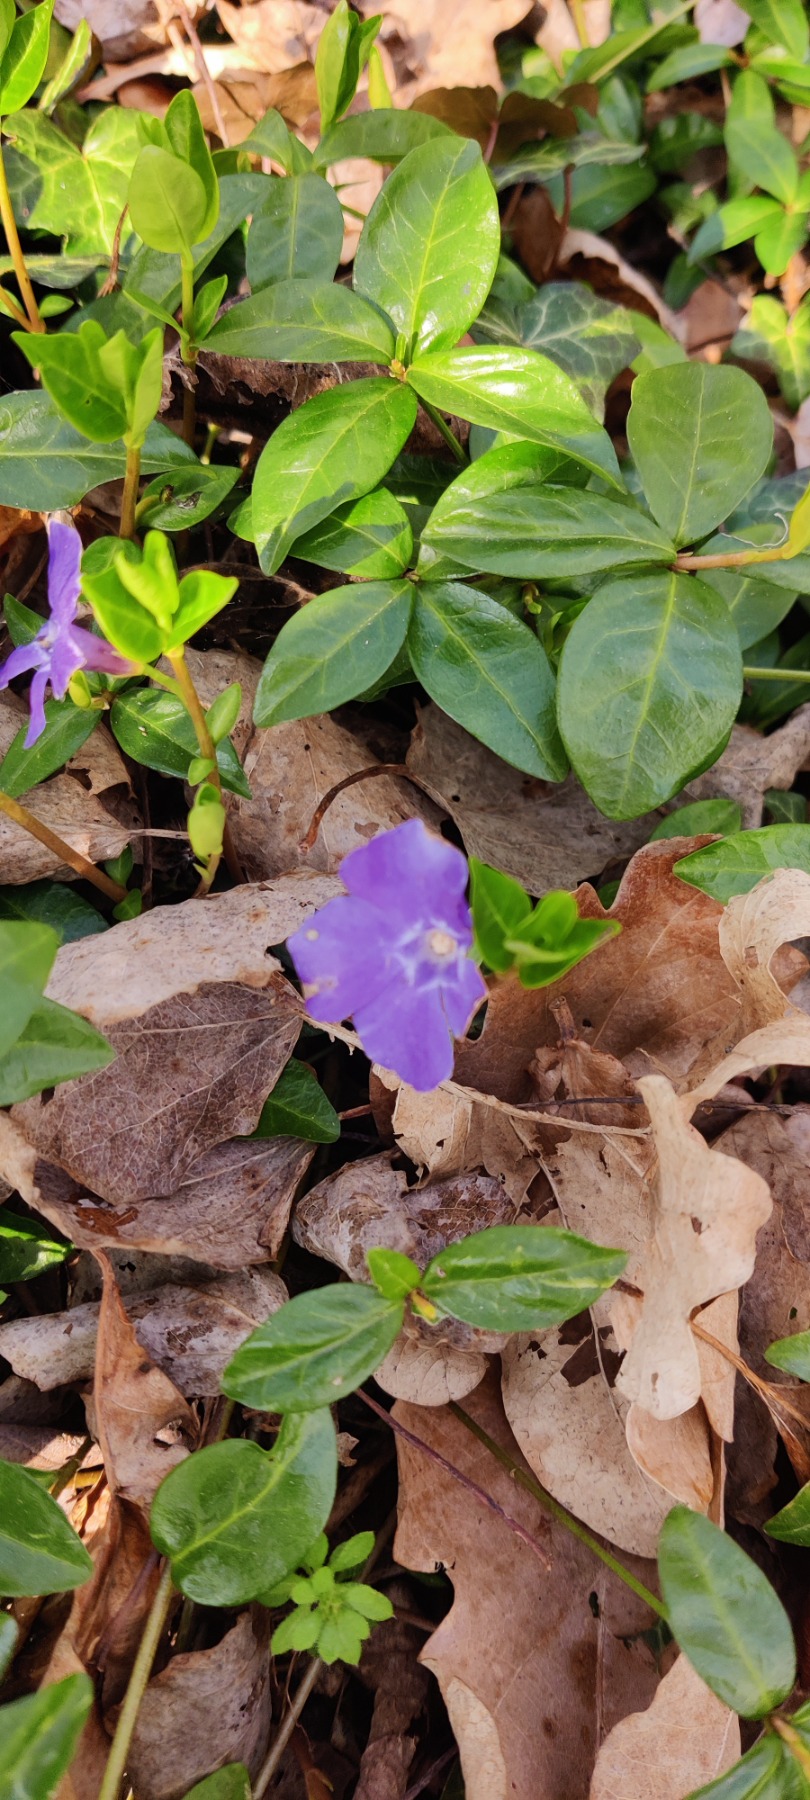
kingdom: Plantae
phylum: Tracheophyta
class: Magnoliopsida
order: Gentianales
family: Apocynaceae
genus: Vinca
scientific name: Vinca minor
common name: Liden singrøn
